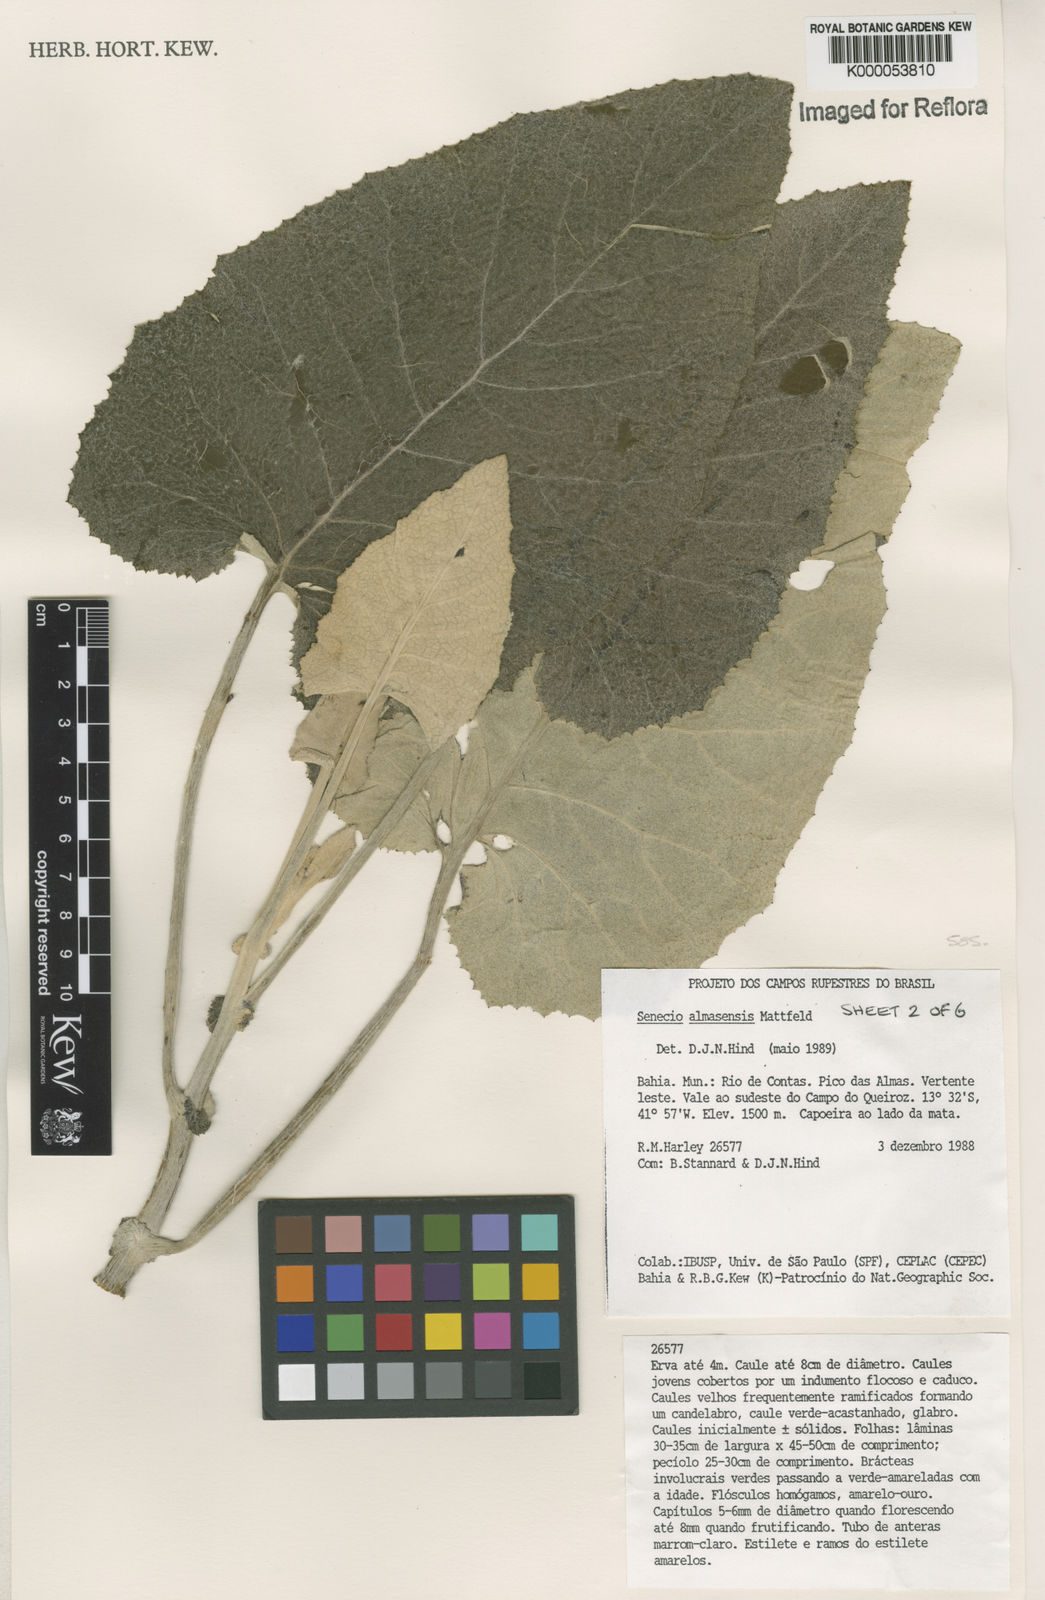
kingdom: Plantae
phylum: Tracheophyta
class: Magnoliopsida
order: Asterales
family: Asteraceae
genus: Senecio
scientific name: Senecio almasensis
